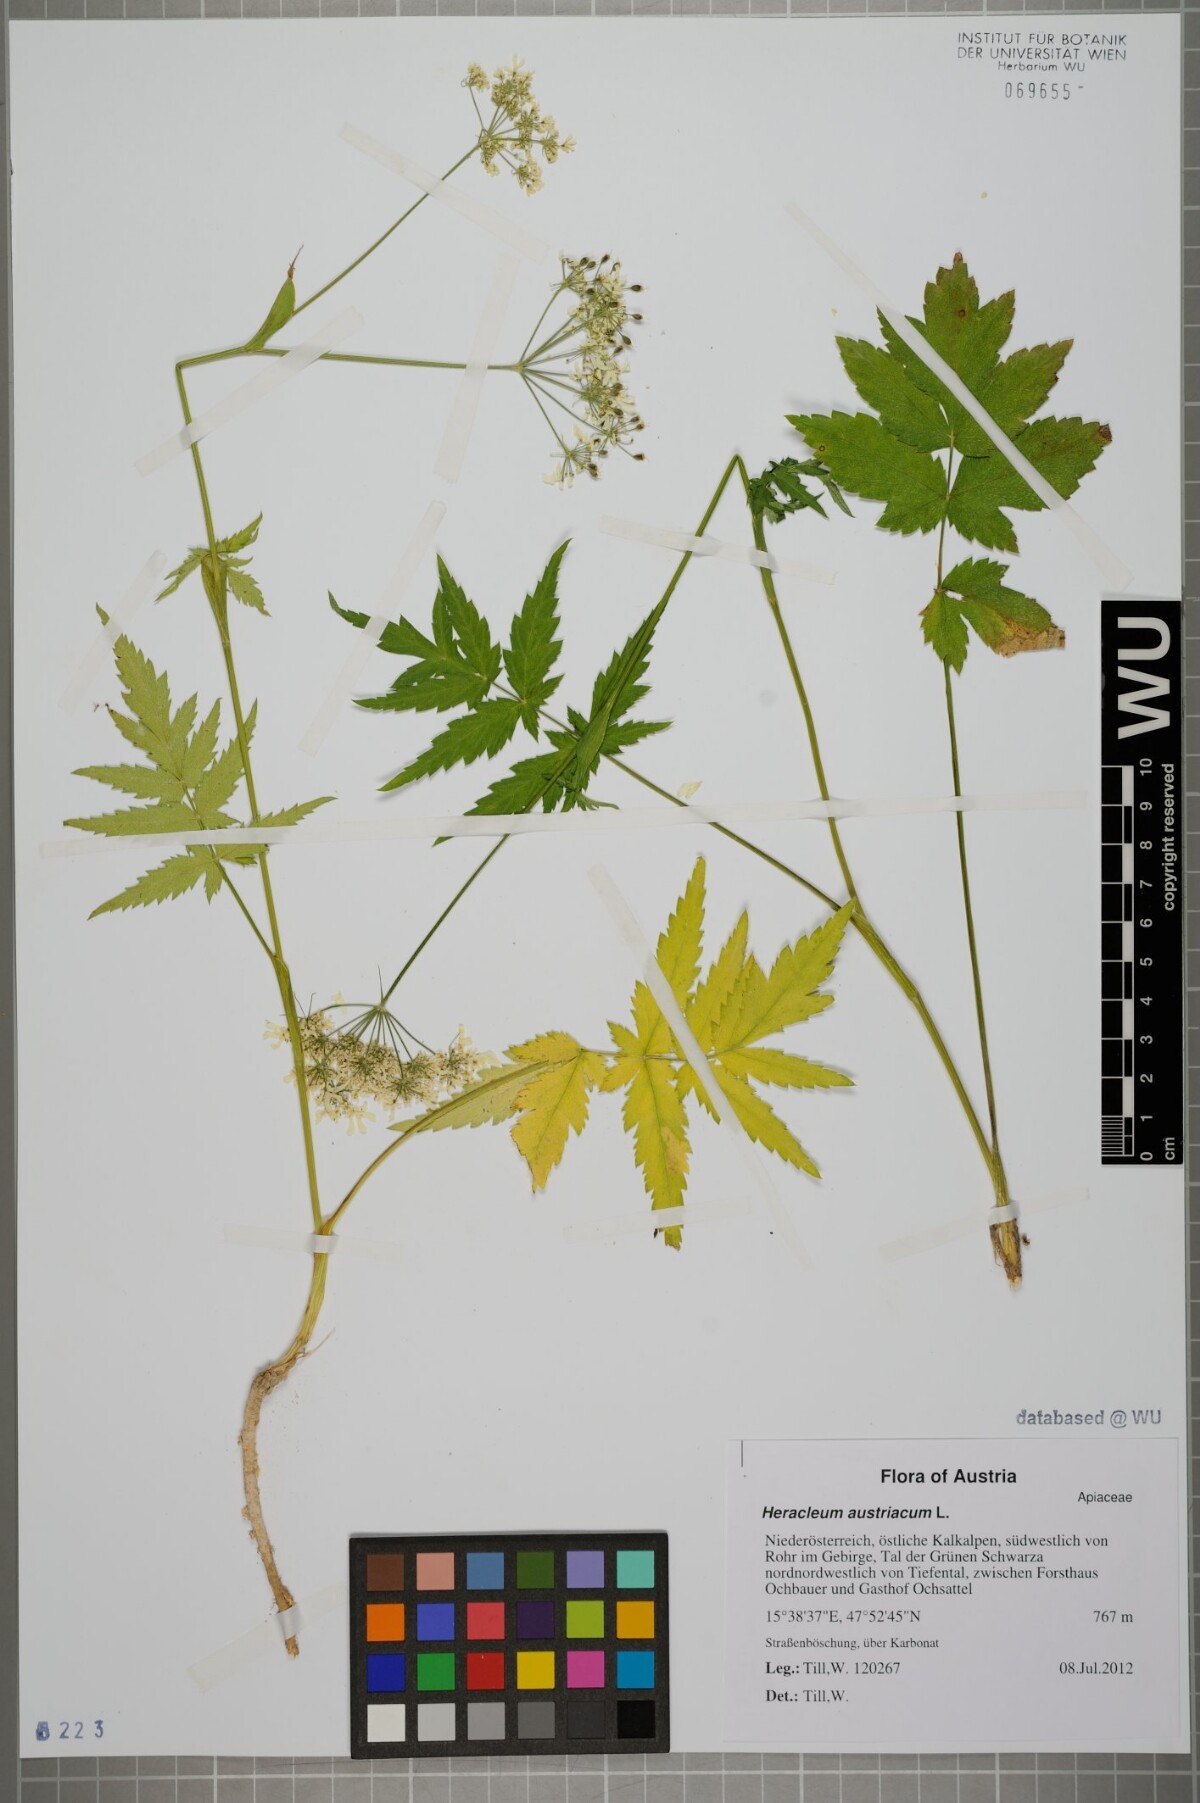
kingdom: Plantae
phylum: Tracheophyta
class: Magnoliopsida
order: Apiales
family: Apiaceae
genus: Heracleum
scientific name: Heracleum austriacum
